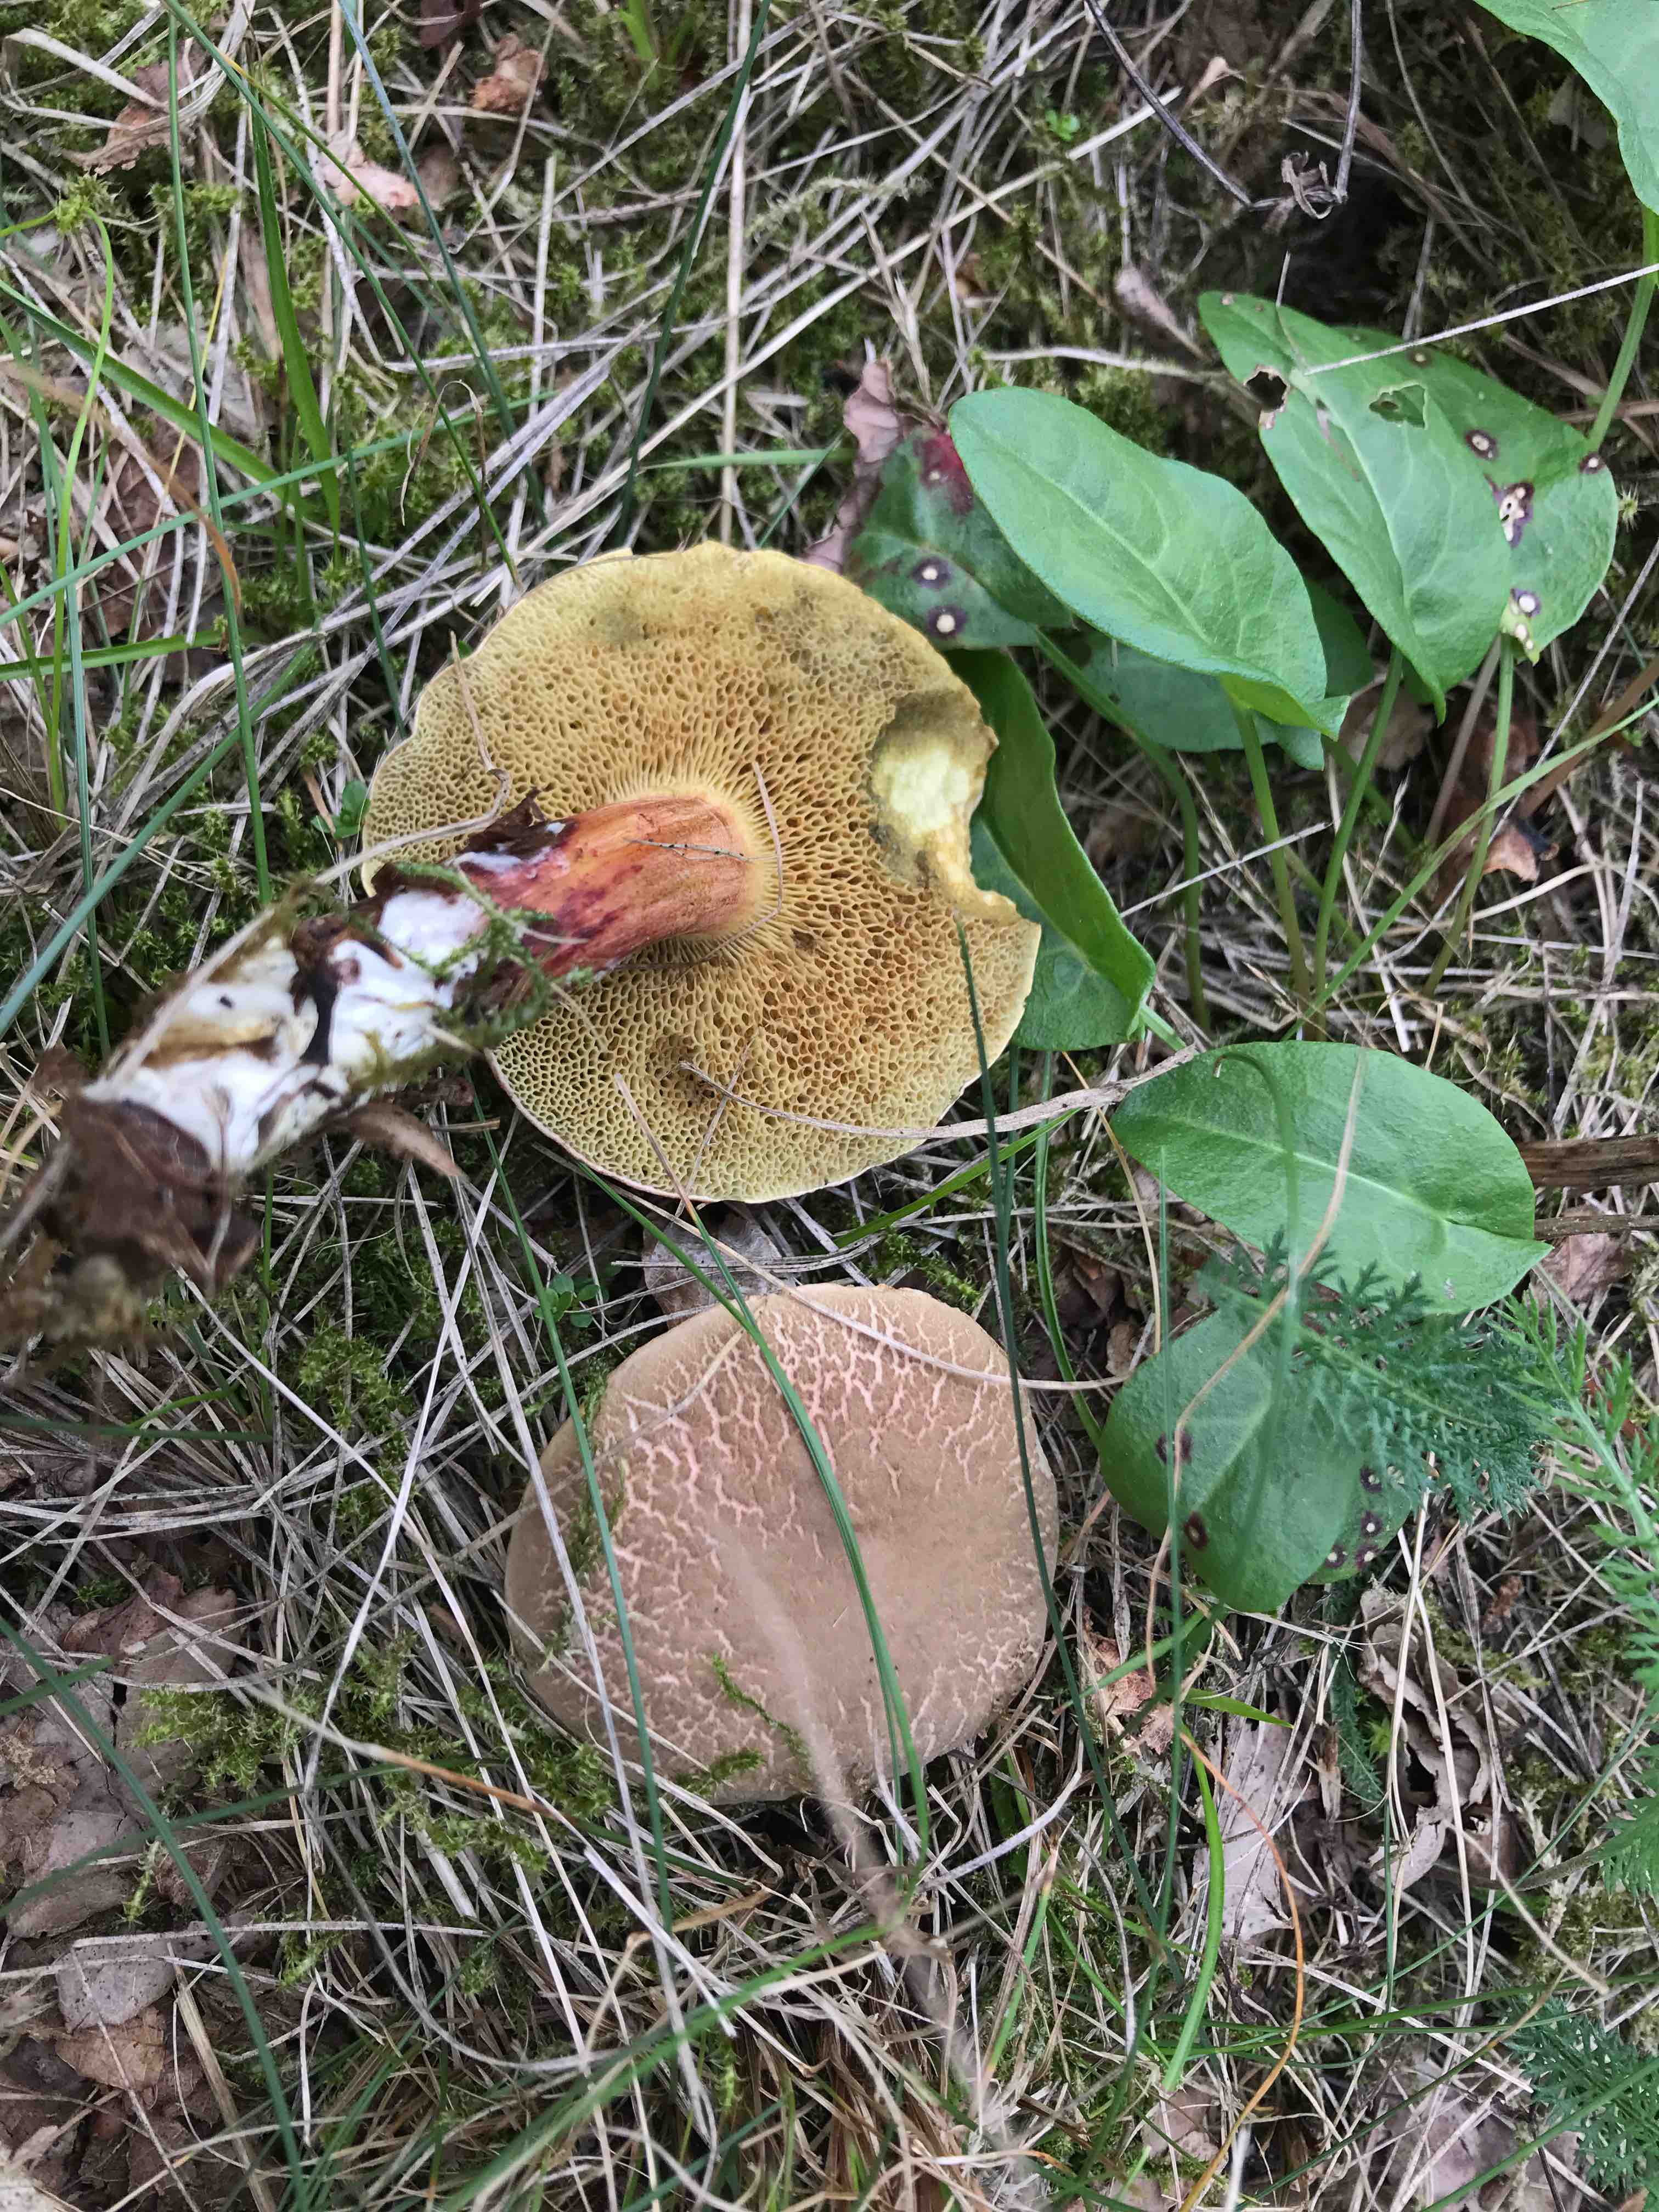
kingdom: Fungi
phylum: Basidiomycota
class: Agaricomycetes
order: Boletales
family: Boletaceae
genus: Xerocomellus
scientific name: Xerocomellus chrysenteron
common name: rødsprukken rørhat
